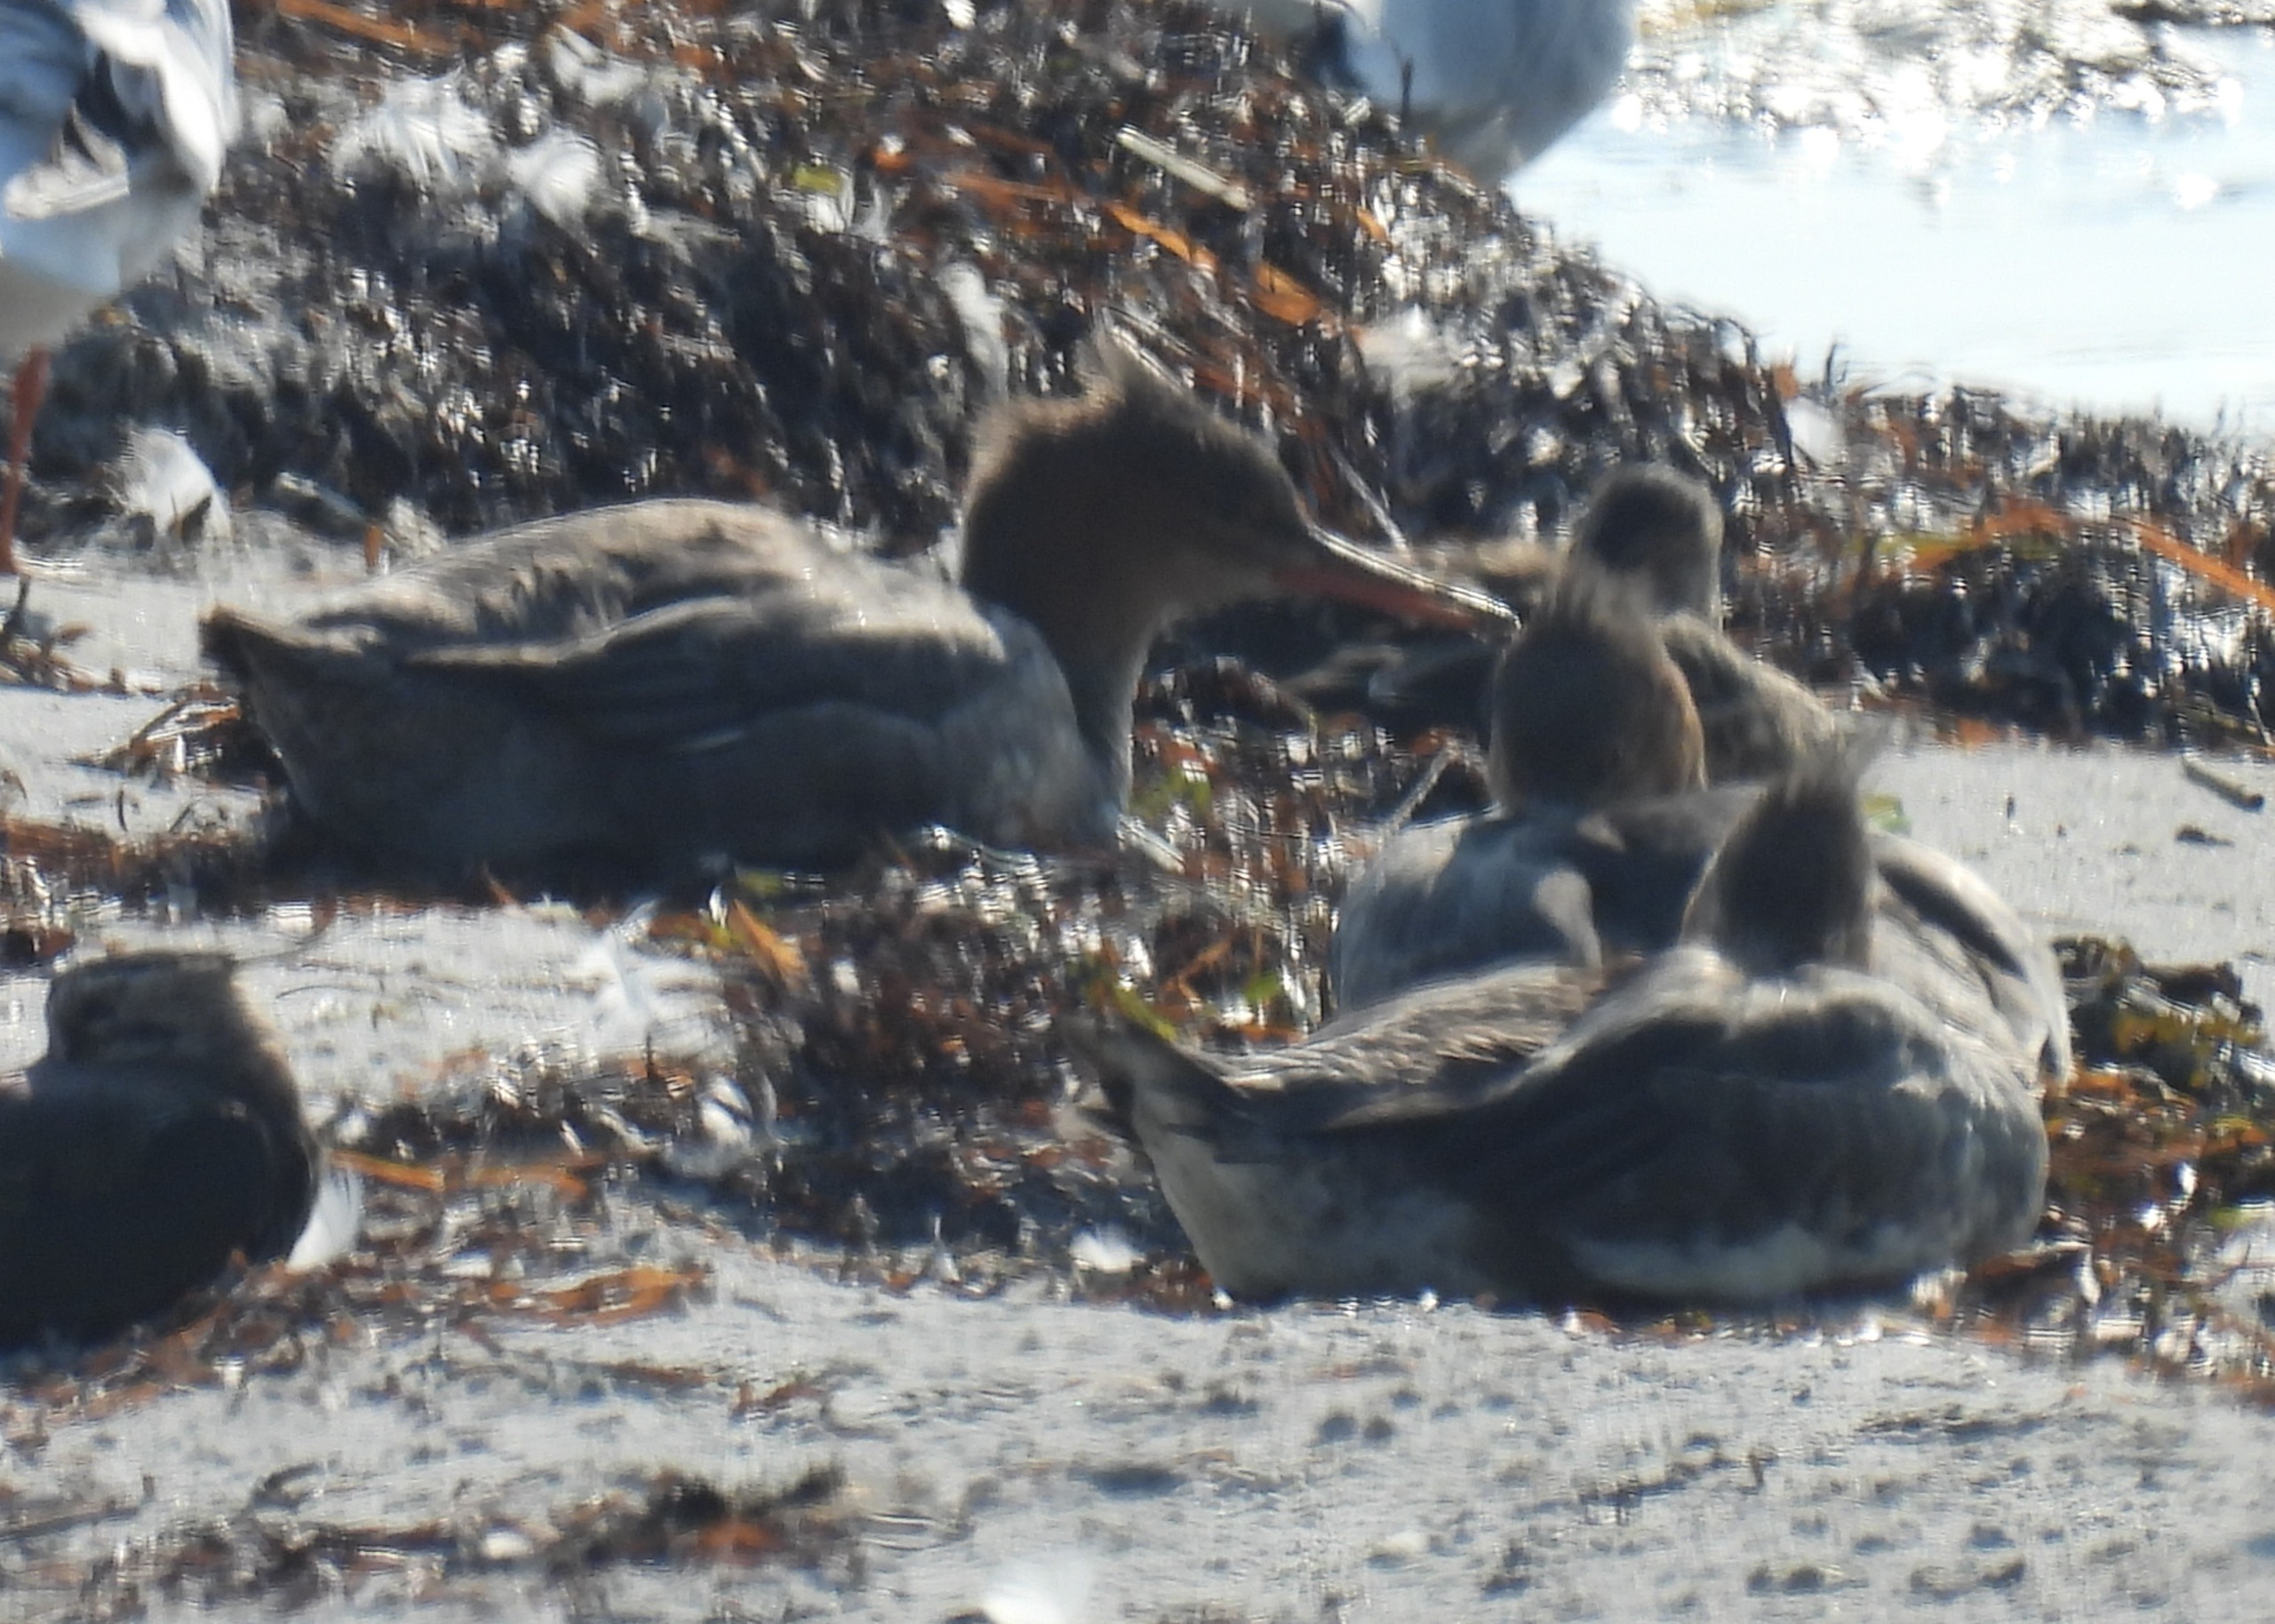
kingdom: Animalia
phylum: Chordata
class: Aves
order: Anseriformes
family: Anatidae
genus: Mergus
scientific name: Mergus serrator
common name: Toppet skallesluger
